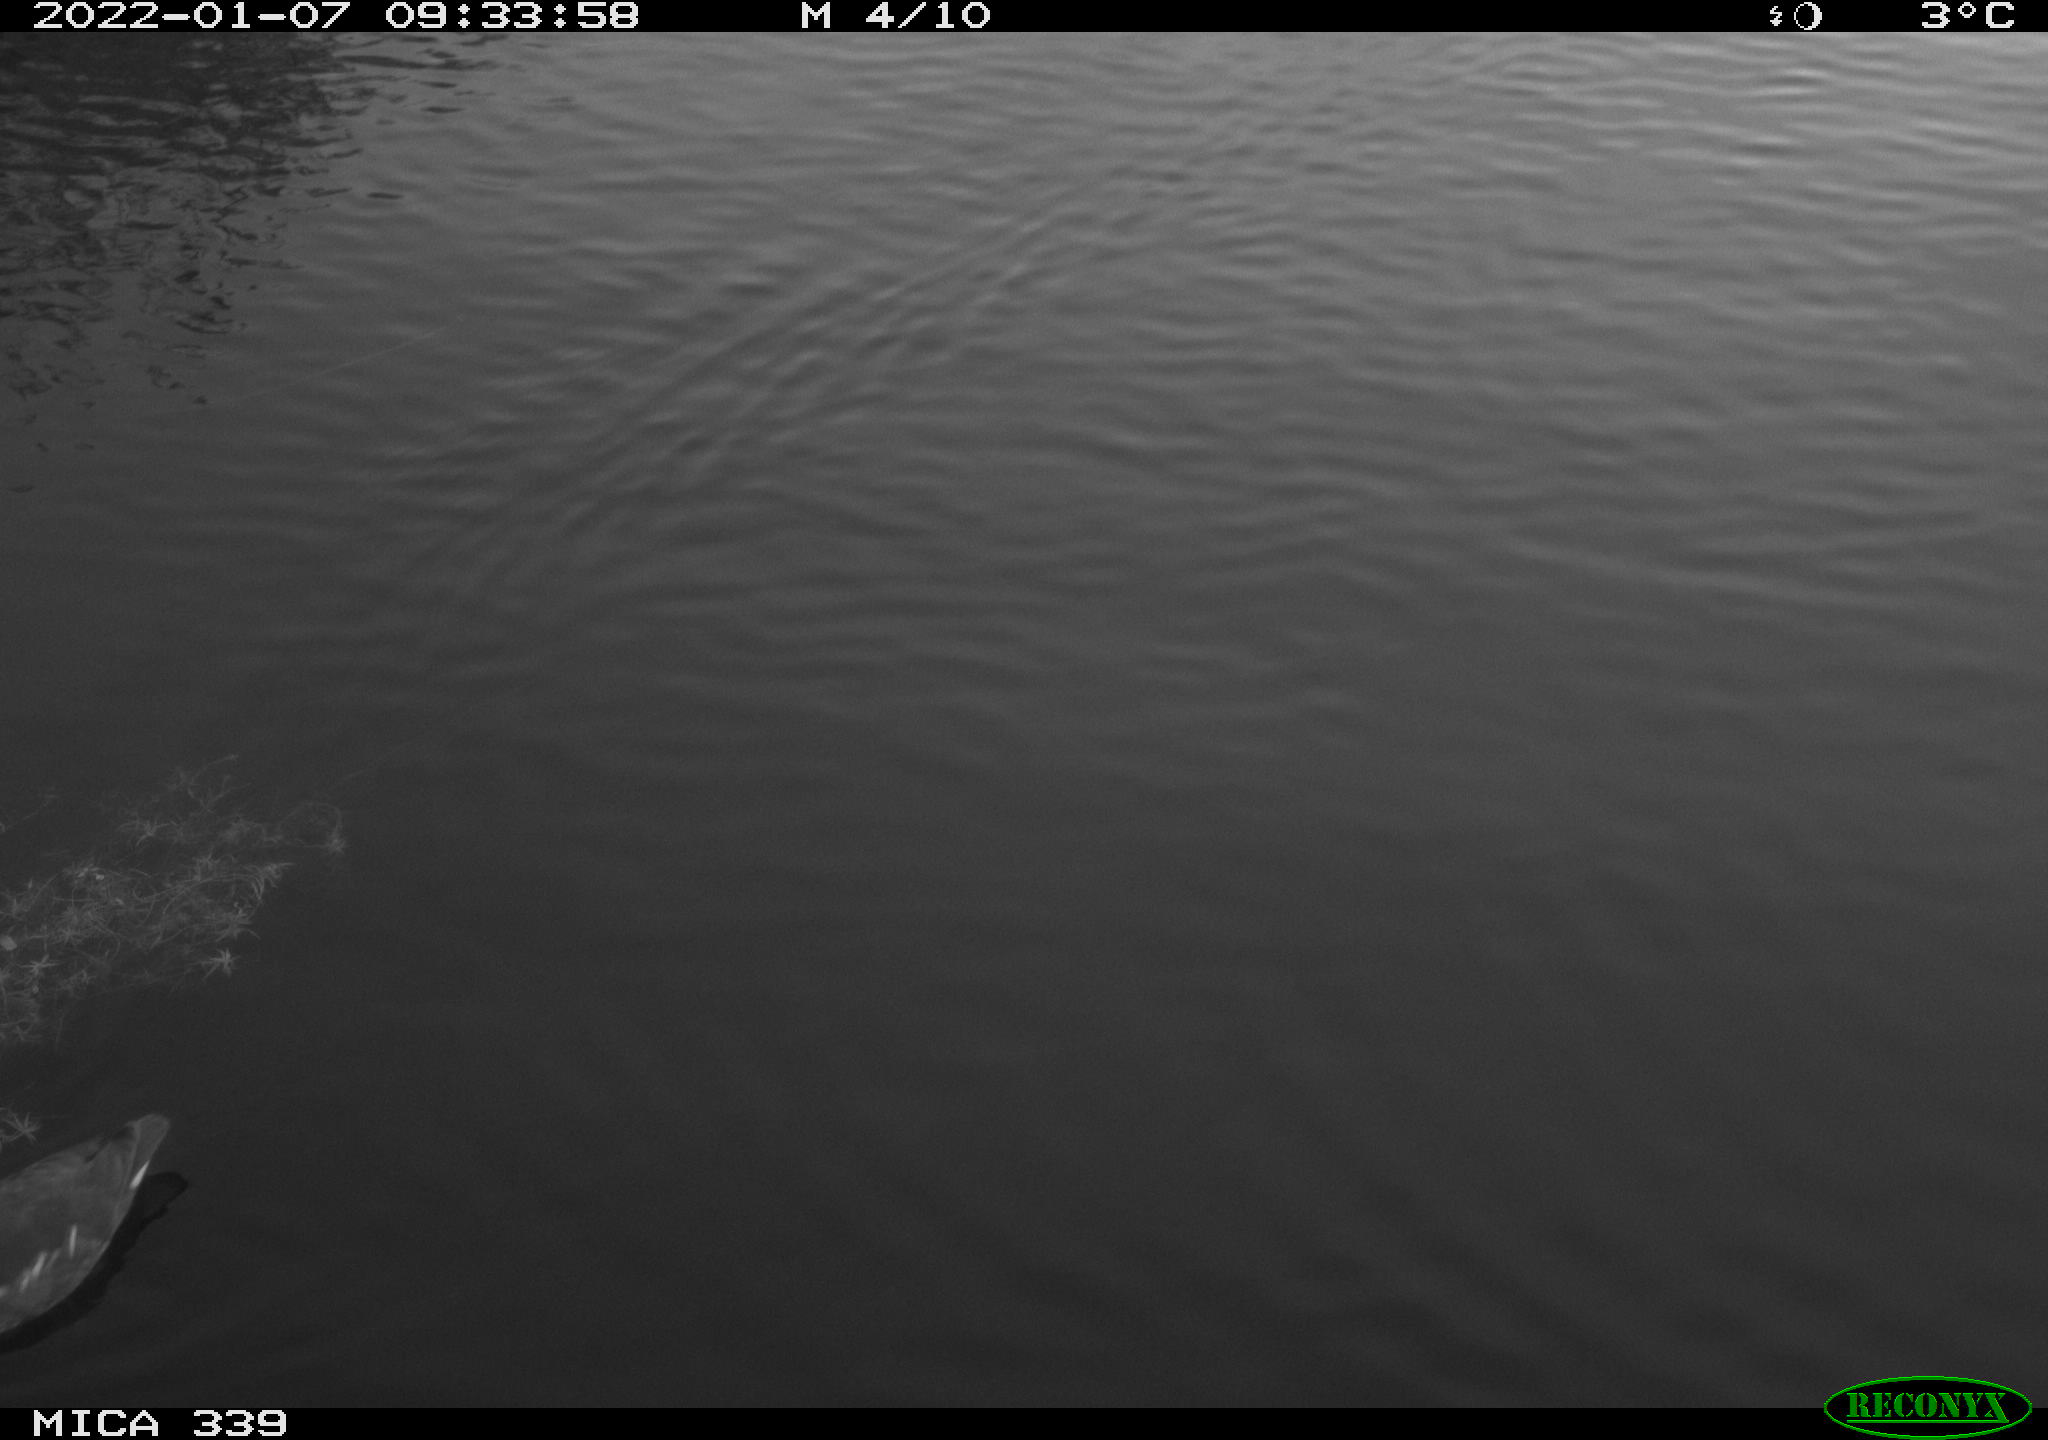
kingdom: Animalia
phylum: Chordata
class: Aves
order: Gruiformes
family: Rallidae
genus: Gallinula
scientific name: Gallinula chloropus
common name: Common moorhen
